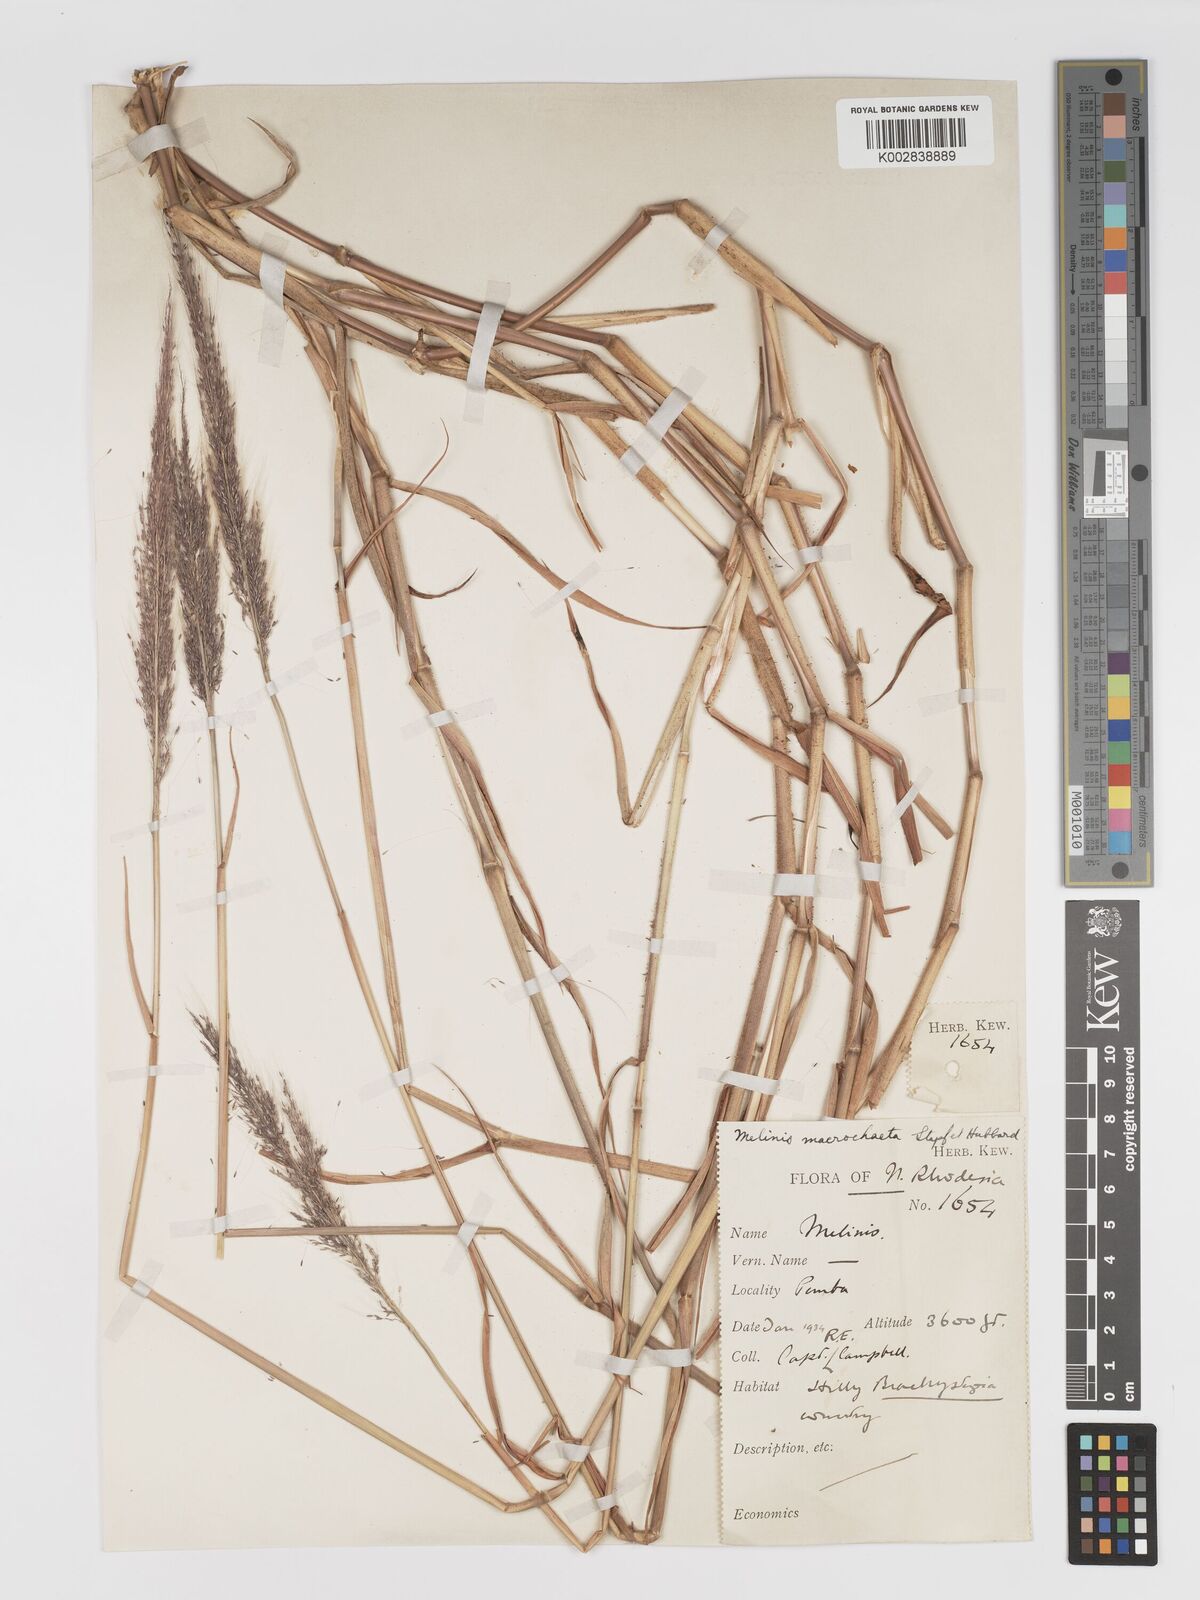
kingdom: Plantae
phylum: Tracheophyta
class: Liliopsida
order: Poales
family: Poaceae
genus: Melinis
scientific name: Melinis macrochaeta
